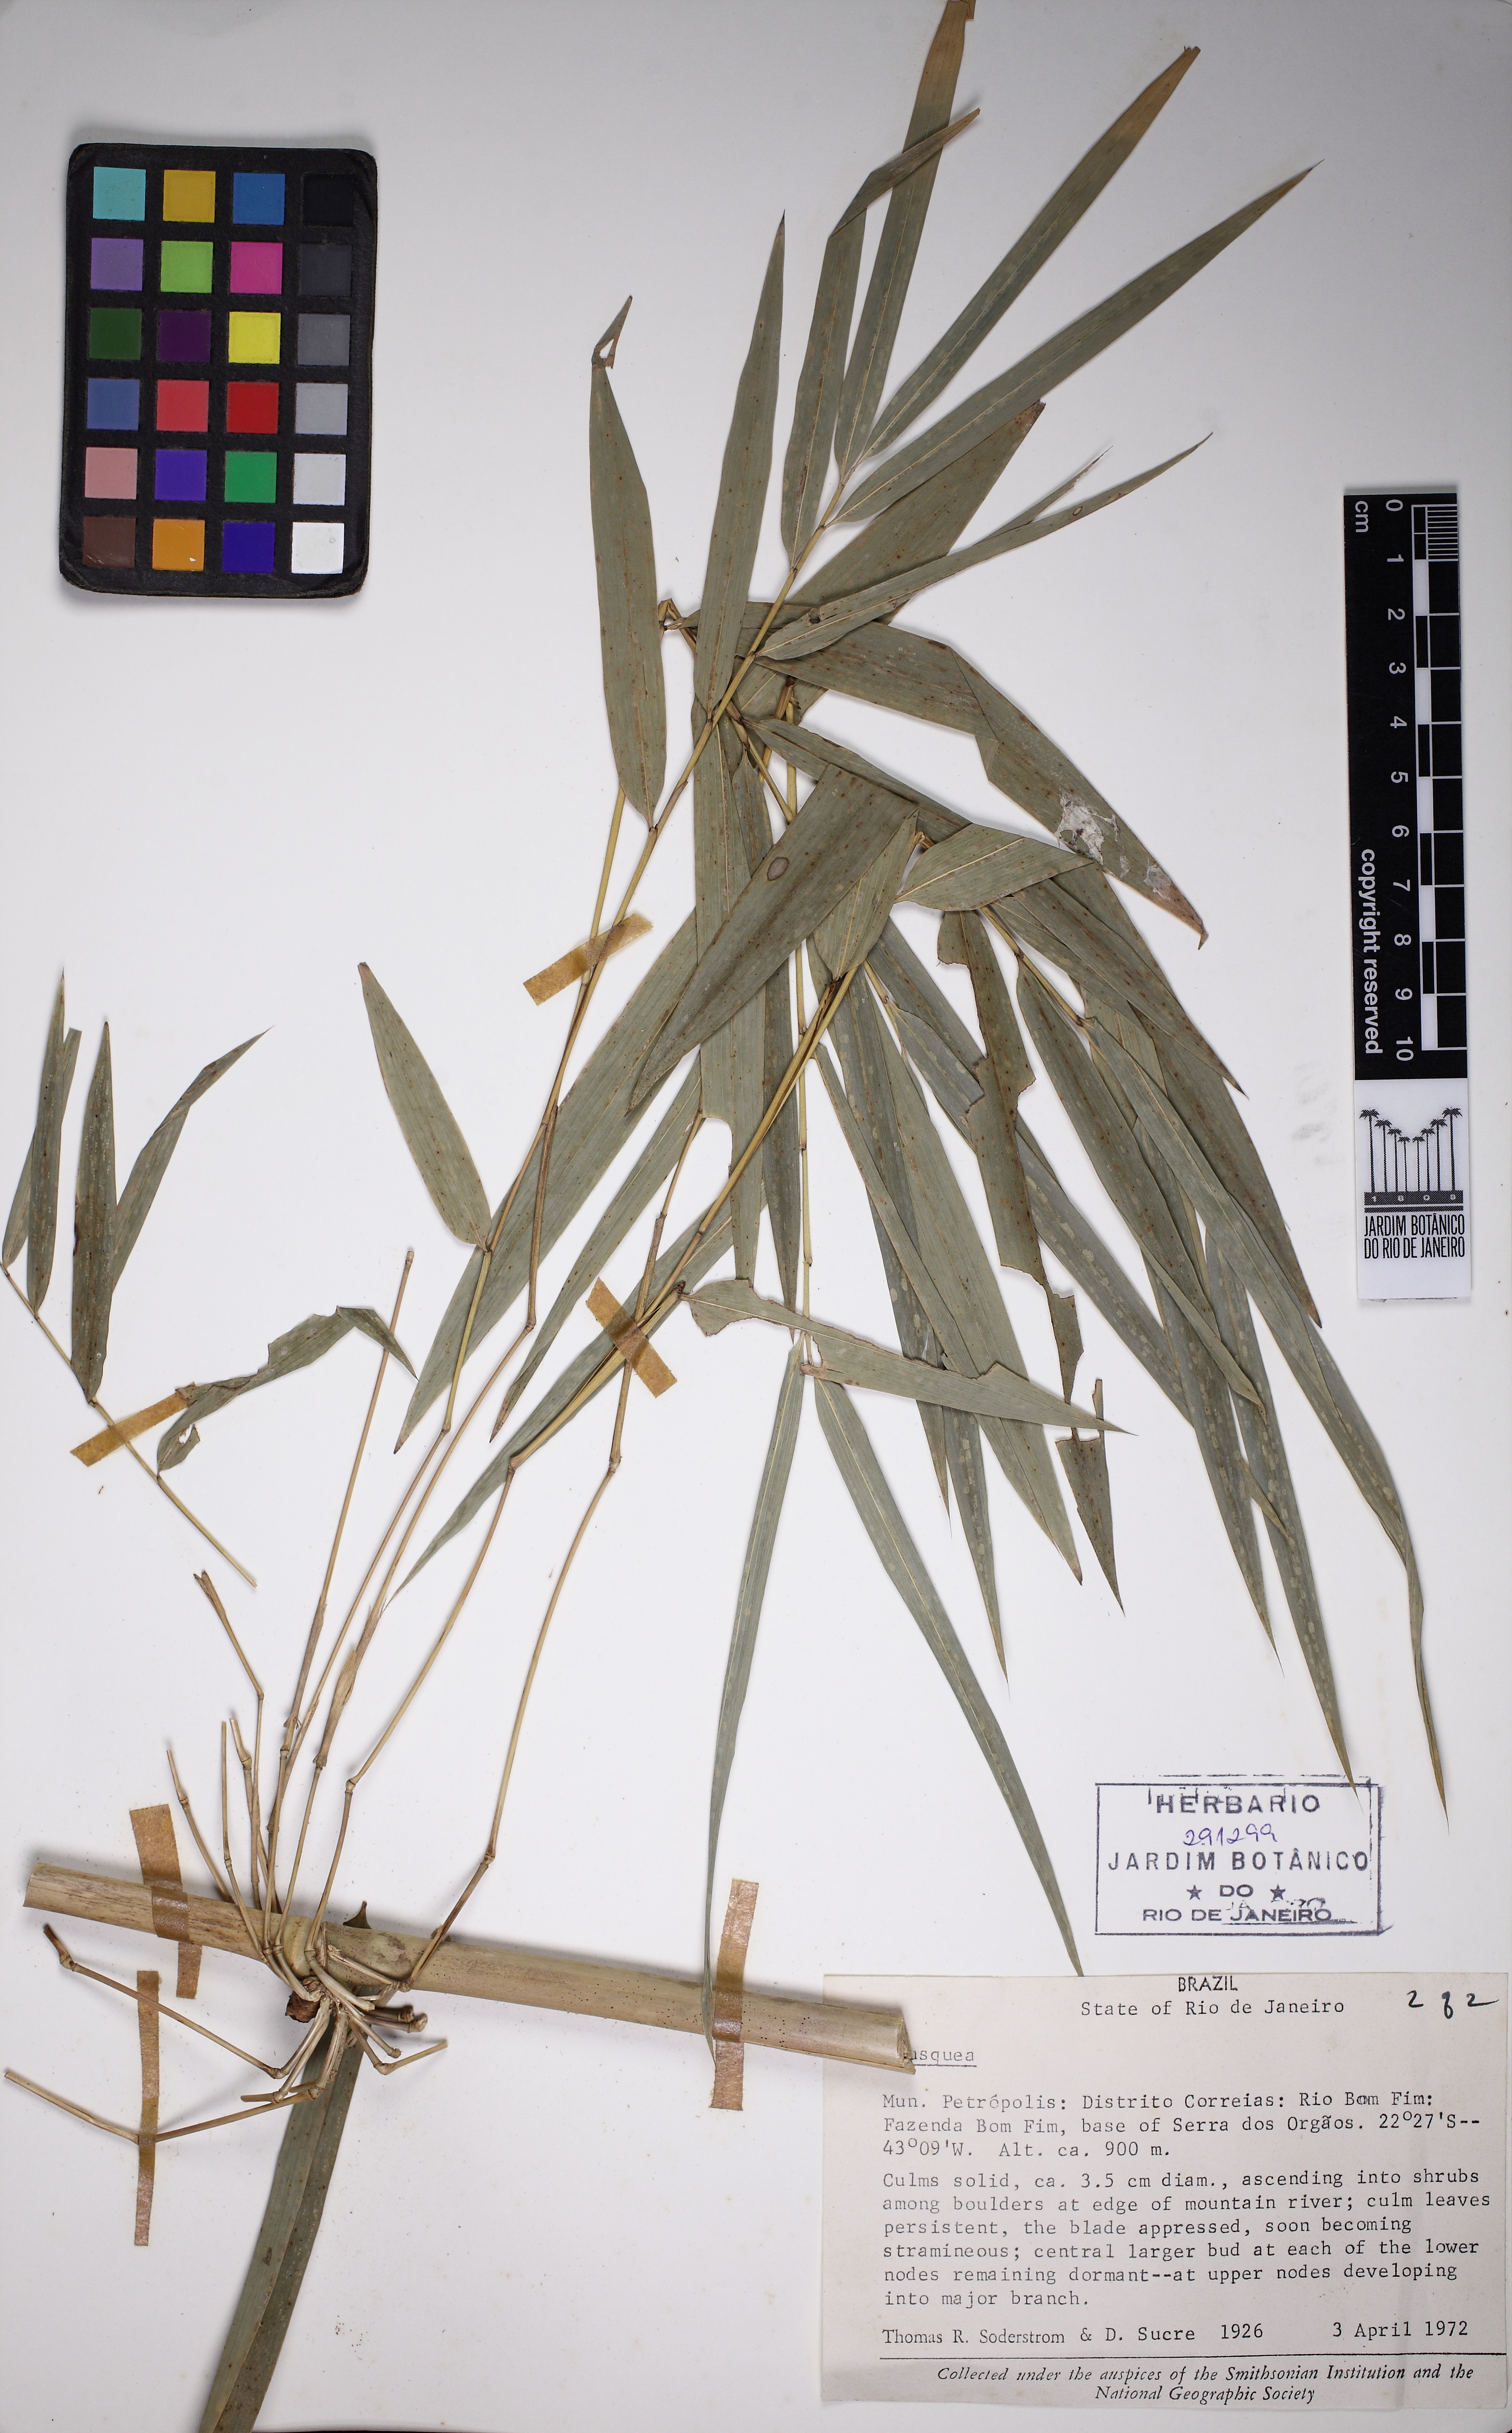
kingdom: Plantae
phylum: Tracheophyta
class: Liliopsida
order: Poales
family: Poaceae
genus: Chusquea
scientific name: Chusquea meyeriana
